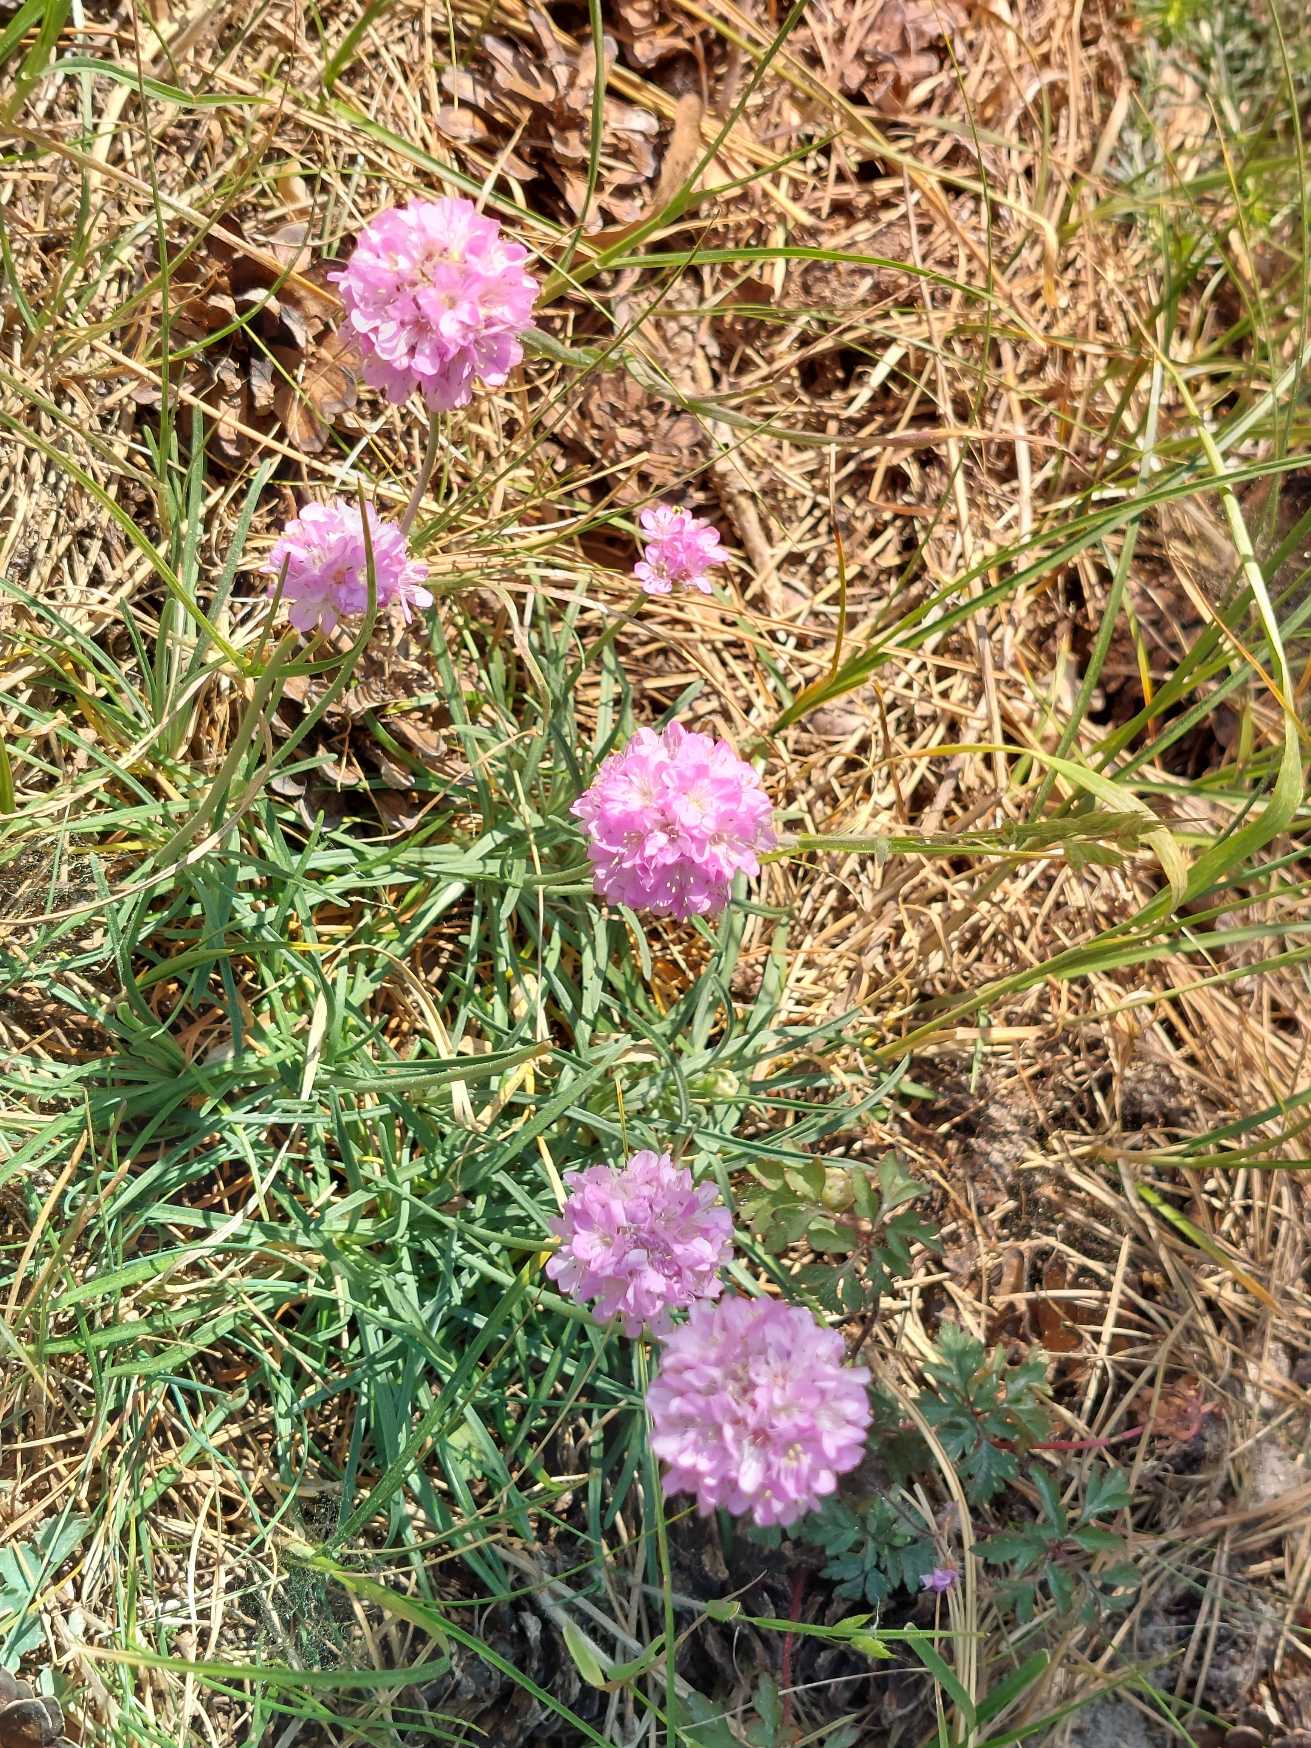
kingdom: Plantae
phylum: Tracheophyta
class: Magnoliopsida
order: Caryophyllales
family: Plumbaginaceae
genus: Armeria
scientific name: Armeria maritima
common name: Engelskgræs
